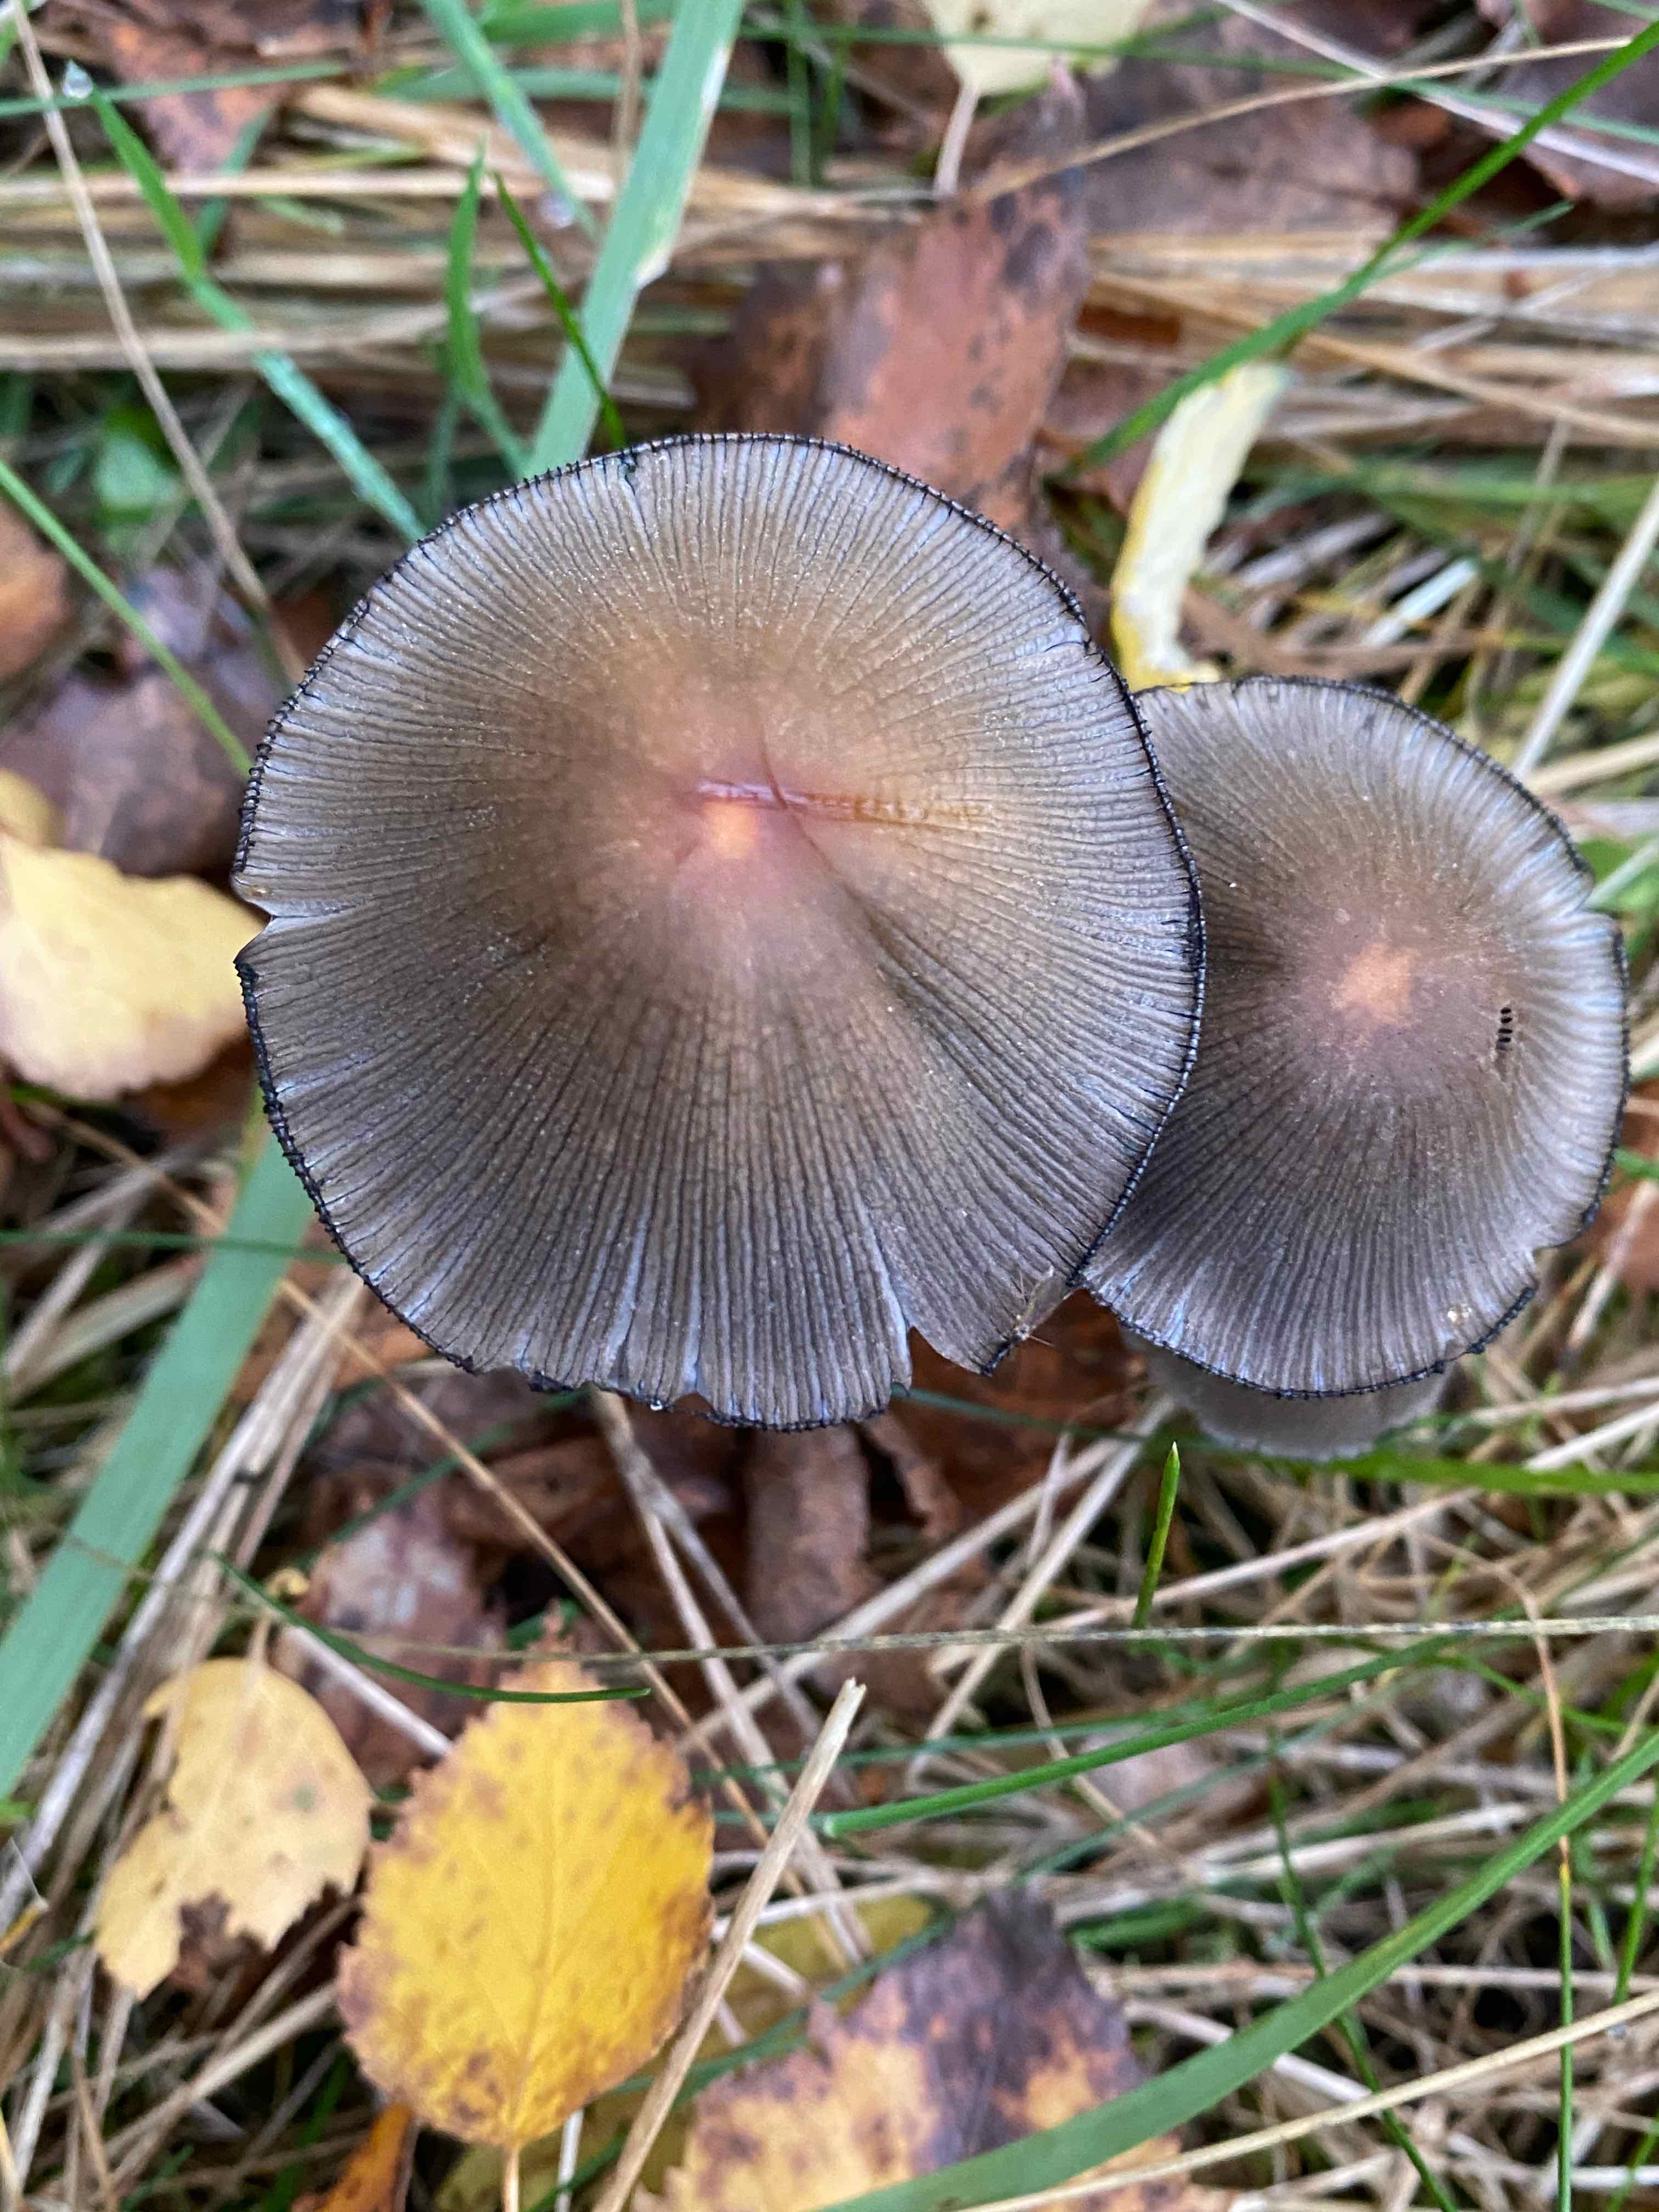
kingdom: Fungi
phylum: Basidiomycota
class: Agaricomycetes
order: Agaricales
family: Psathyrellaceae
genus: Coprinellus
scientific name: Coprinellus
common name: blækhat
